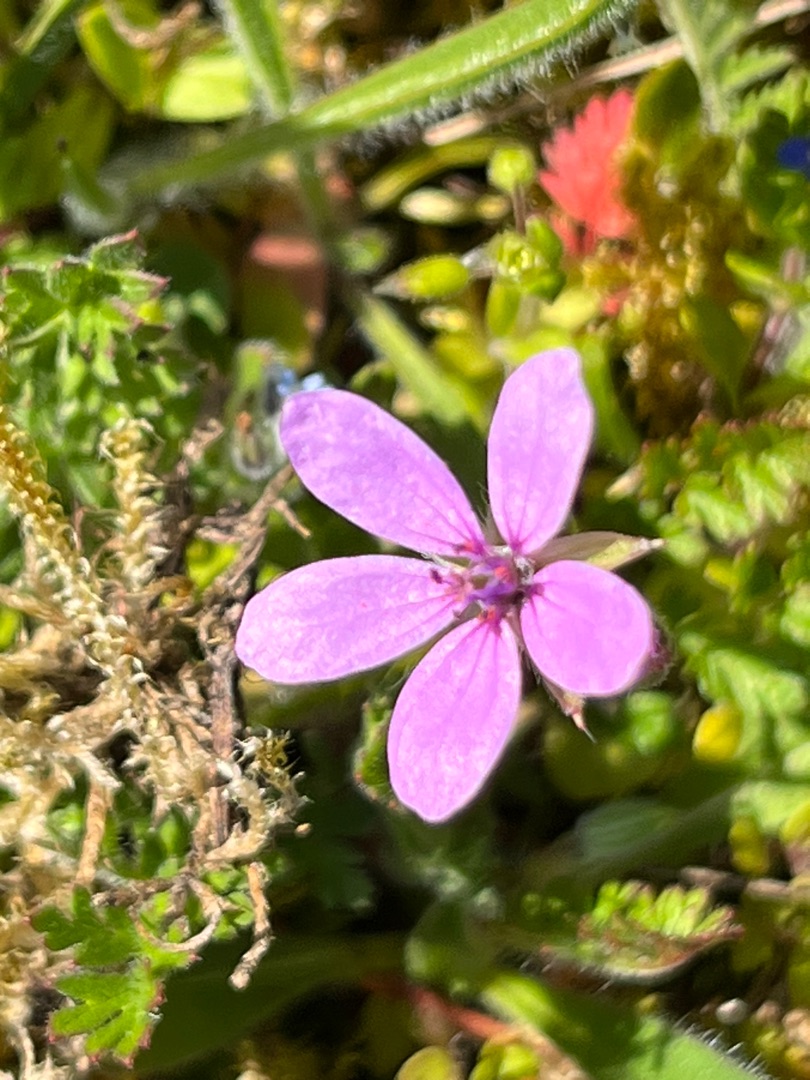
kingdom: Plantae
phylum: Tracheophyta
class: Magnoliopsida
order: Geraniales
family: Geraniaceae
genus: Erodium
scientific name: Erodium cicutarium
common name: Hejrenæb
